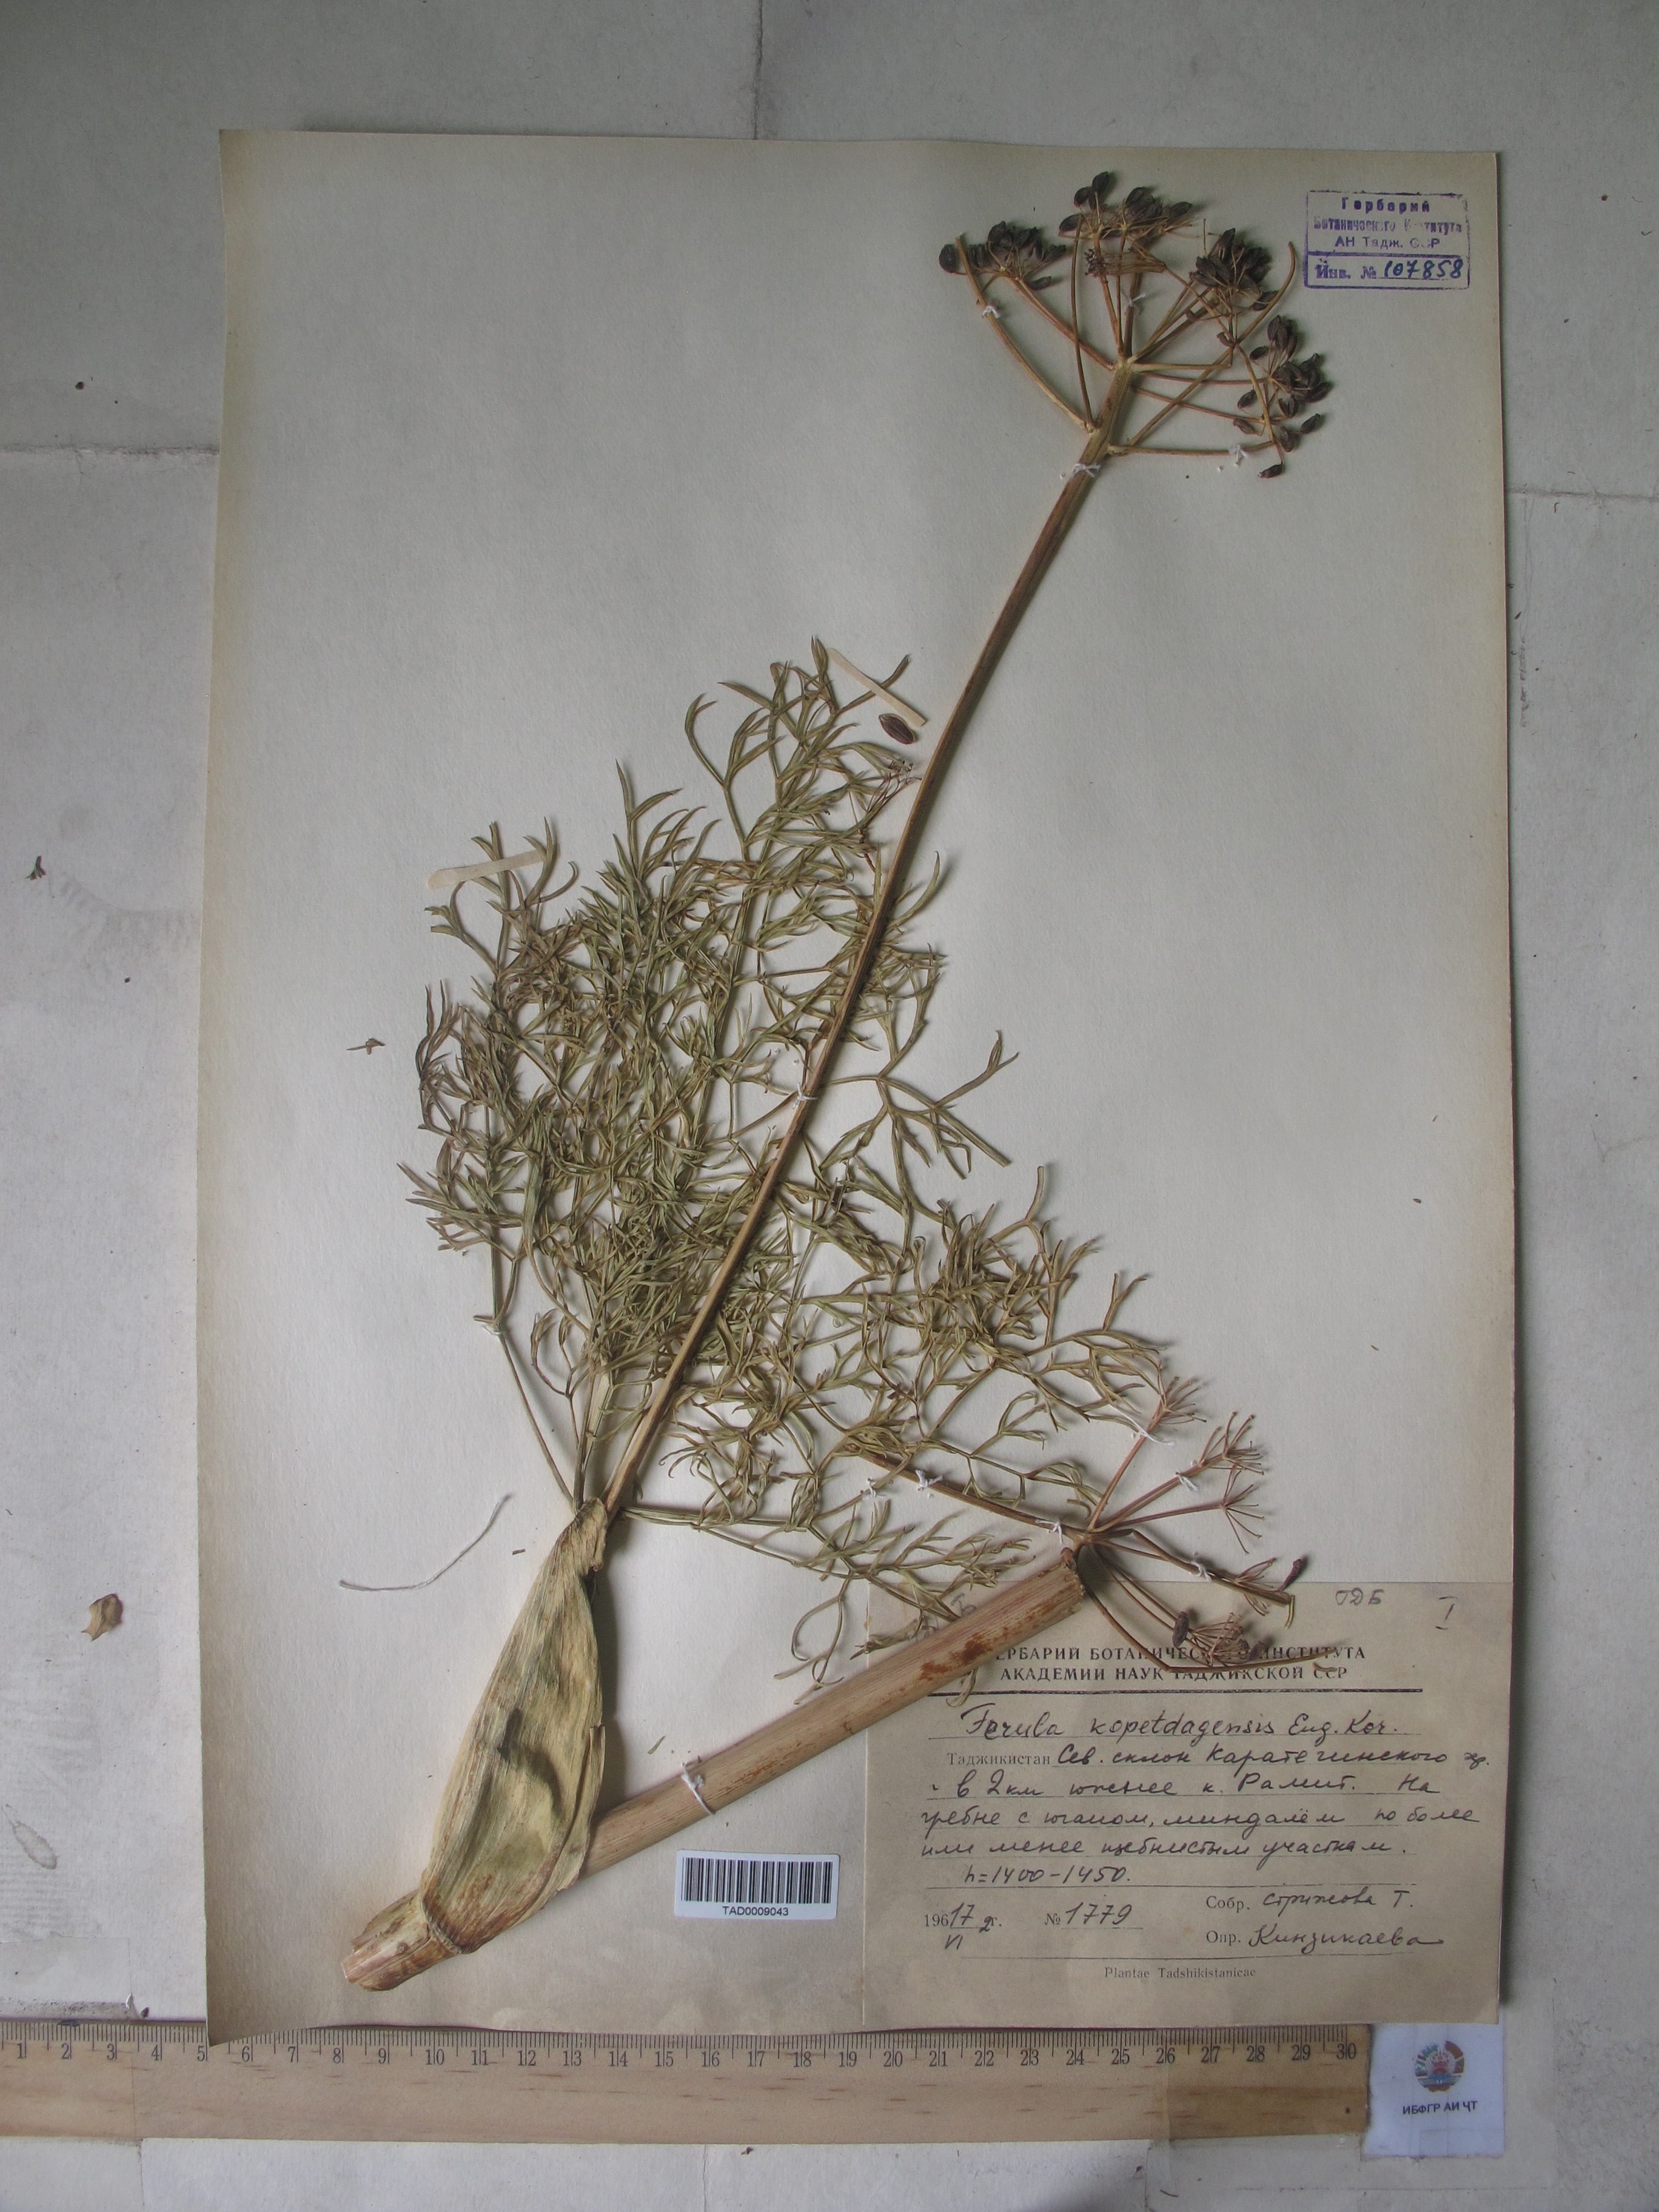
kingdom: Plantae
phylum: Tracheophyta
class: Magnoliopsida
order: Apiales
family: Apiaceae
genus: Ferula
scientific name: Ferula ovina
